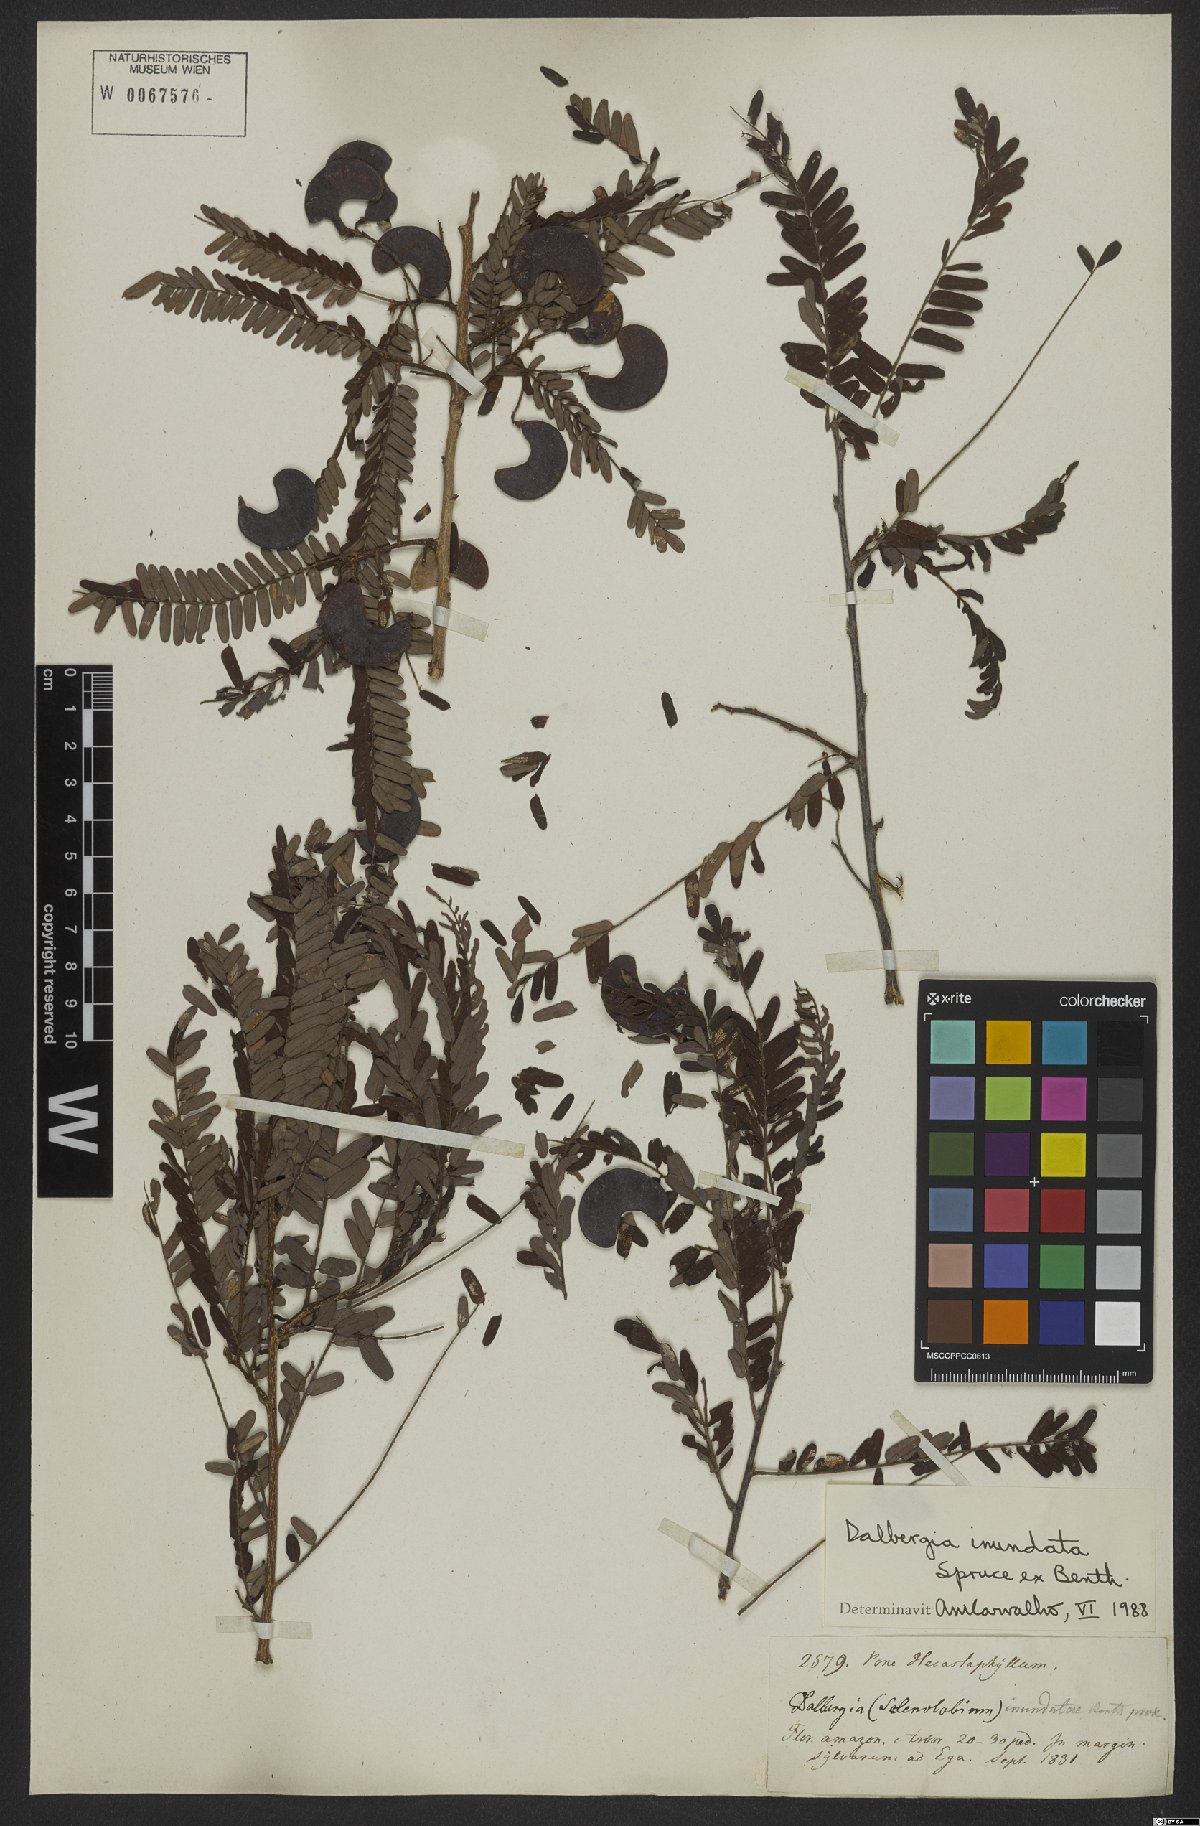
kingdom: Plantae
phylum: Tracheophyta
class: Magnoliopsida
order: Fabales
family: Fabaceae
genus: Dalbergia
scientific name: Dalbergia inundata
